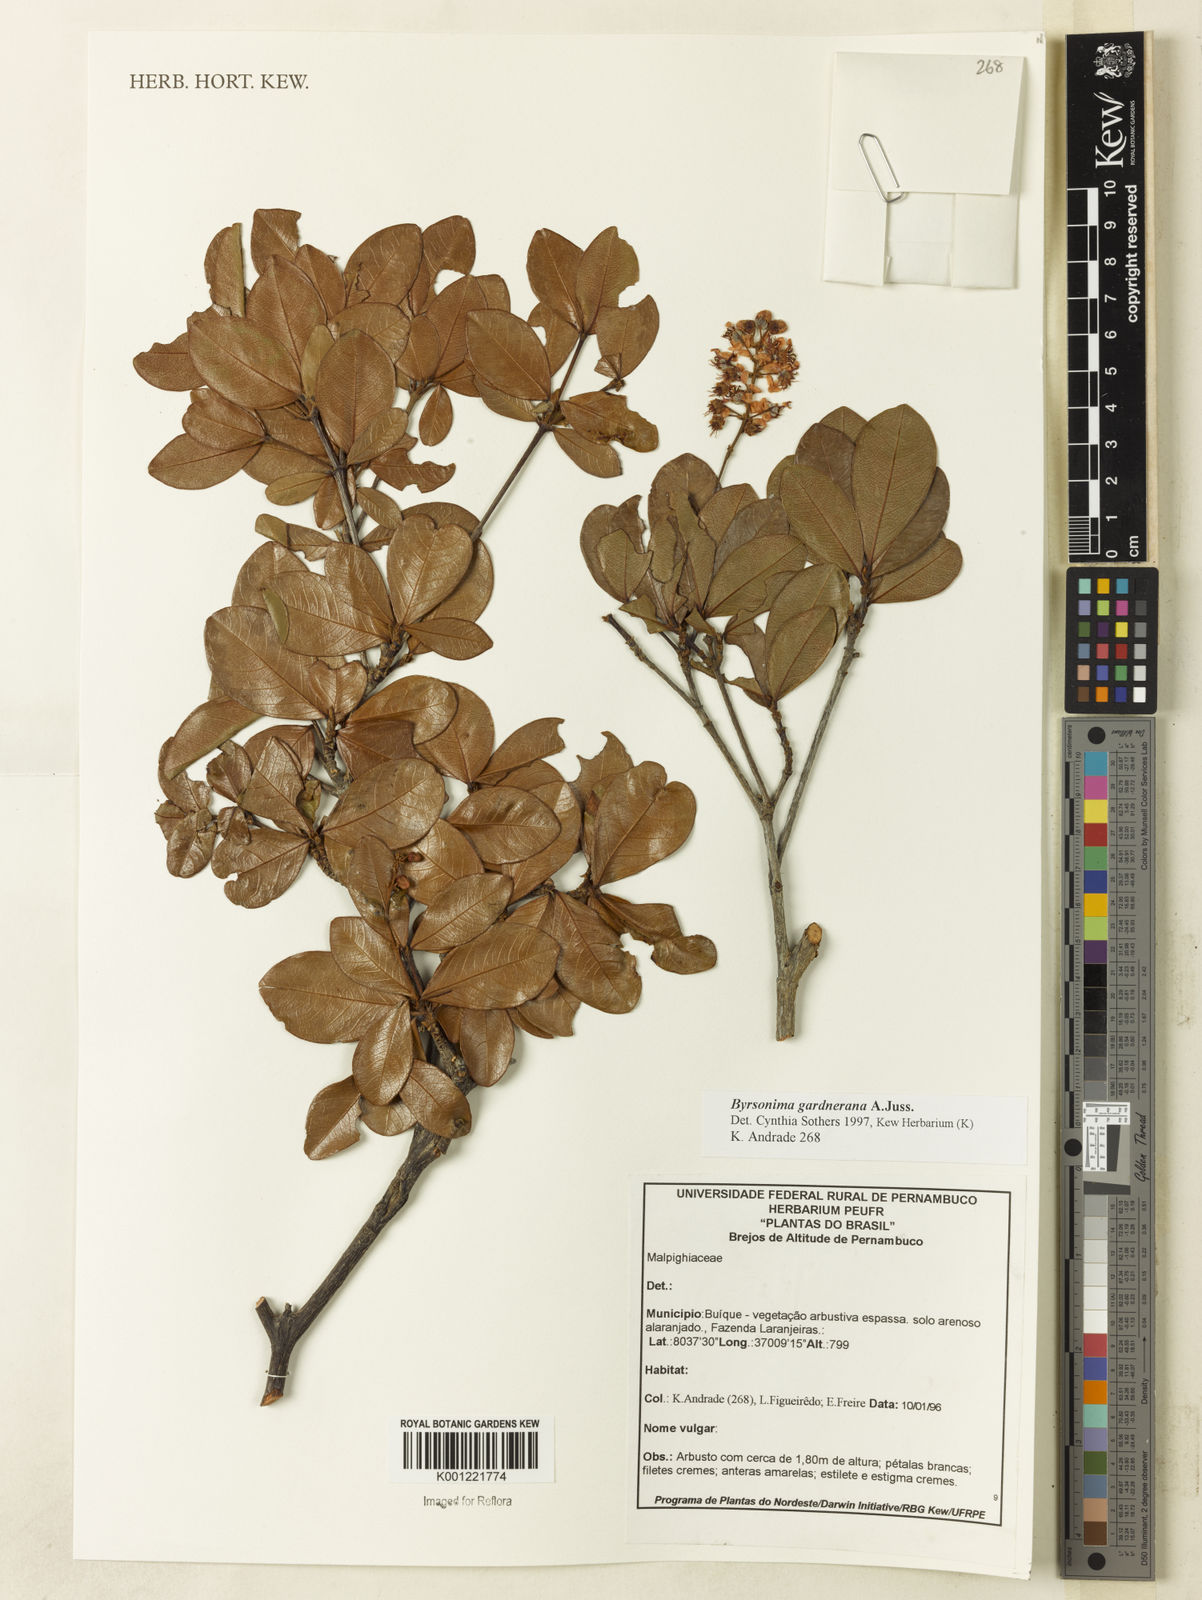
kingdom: Plantae
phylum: Tracheophyta
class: Magnoliopsida
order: Malpighiales
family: Malpighiaceae
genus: Byrsonima
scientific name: Byrsonima gardneriana
